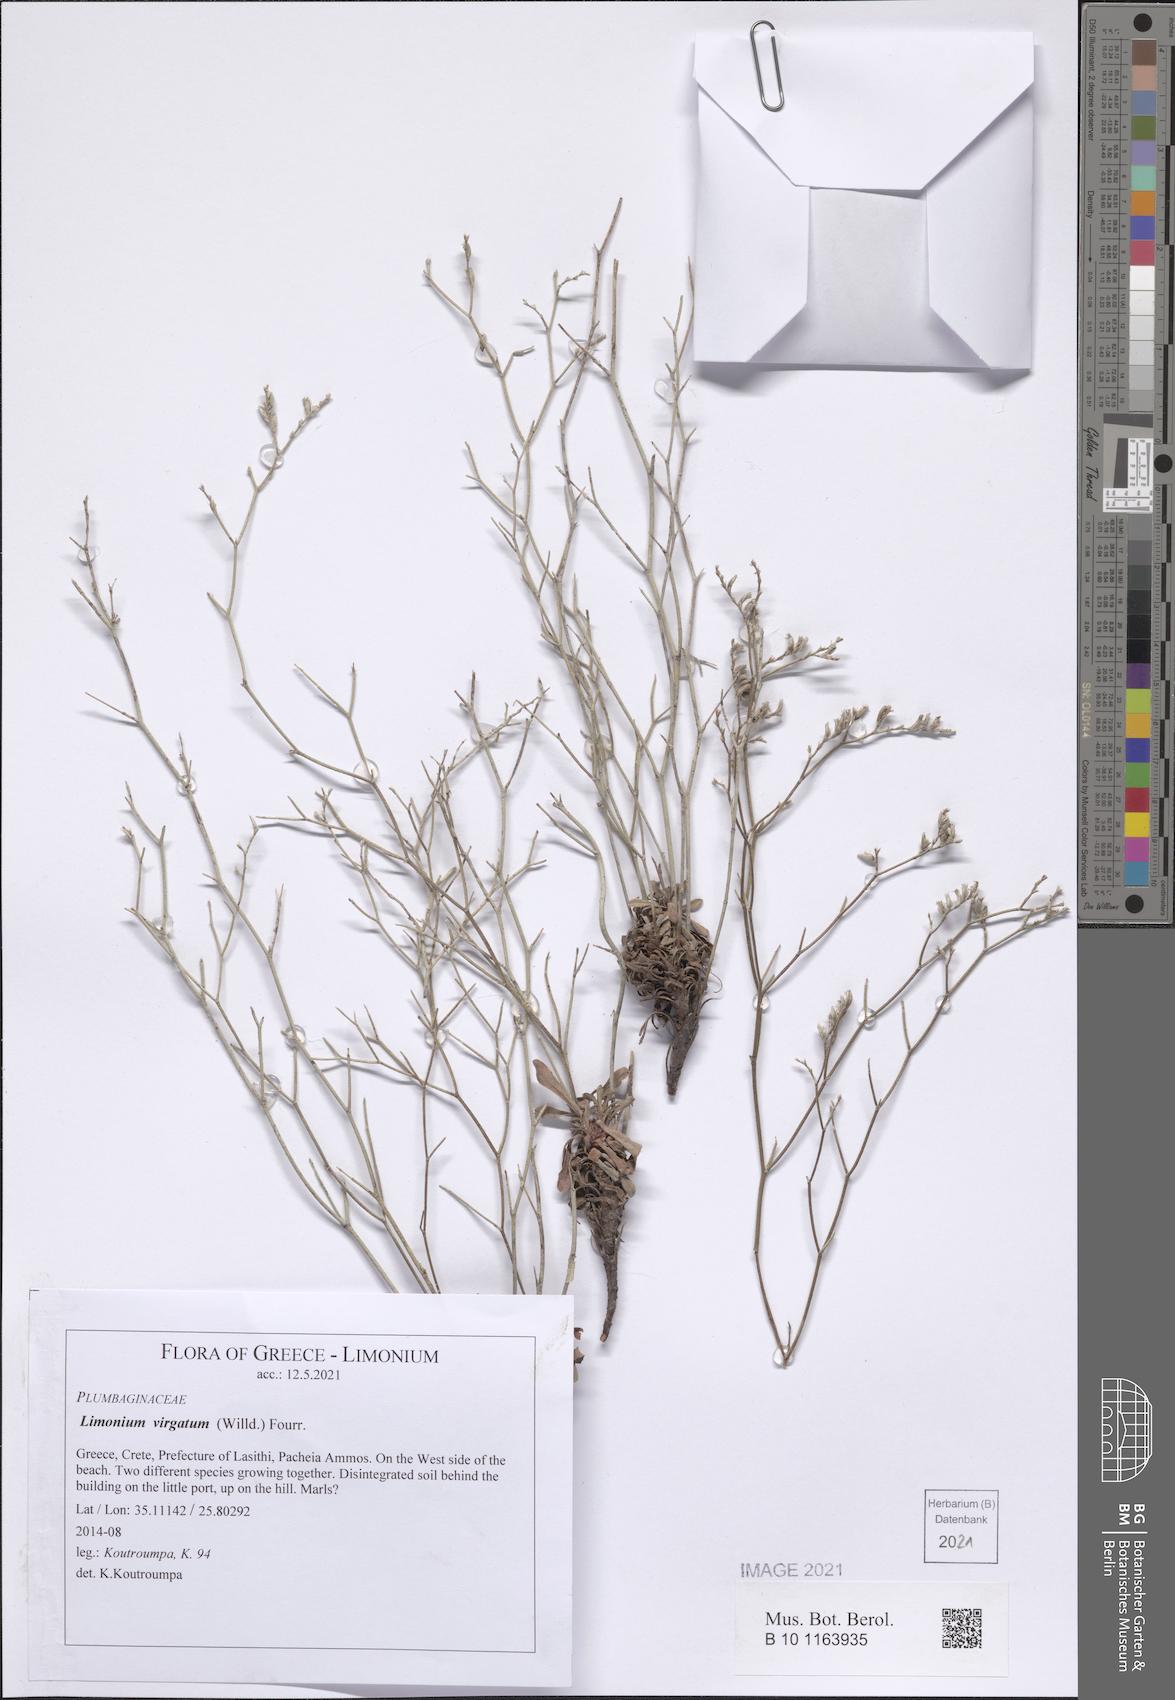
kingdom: Plantae
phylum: Tracheophyta
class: Magnoliopsida
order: Caryophyllales
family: Plumbaginaceae
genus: Limonium
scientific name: Limonium virgatum
